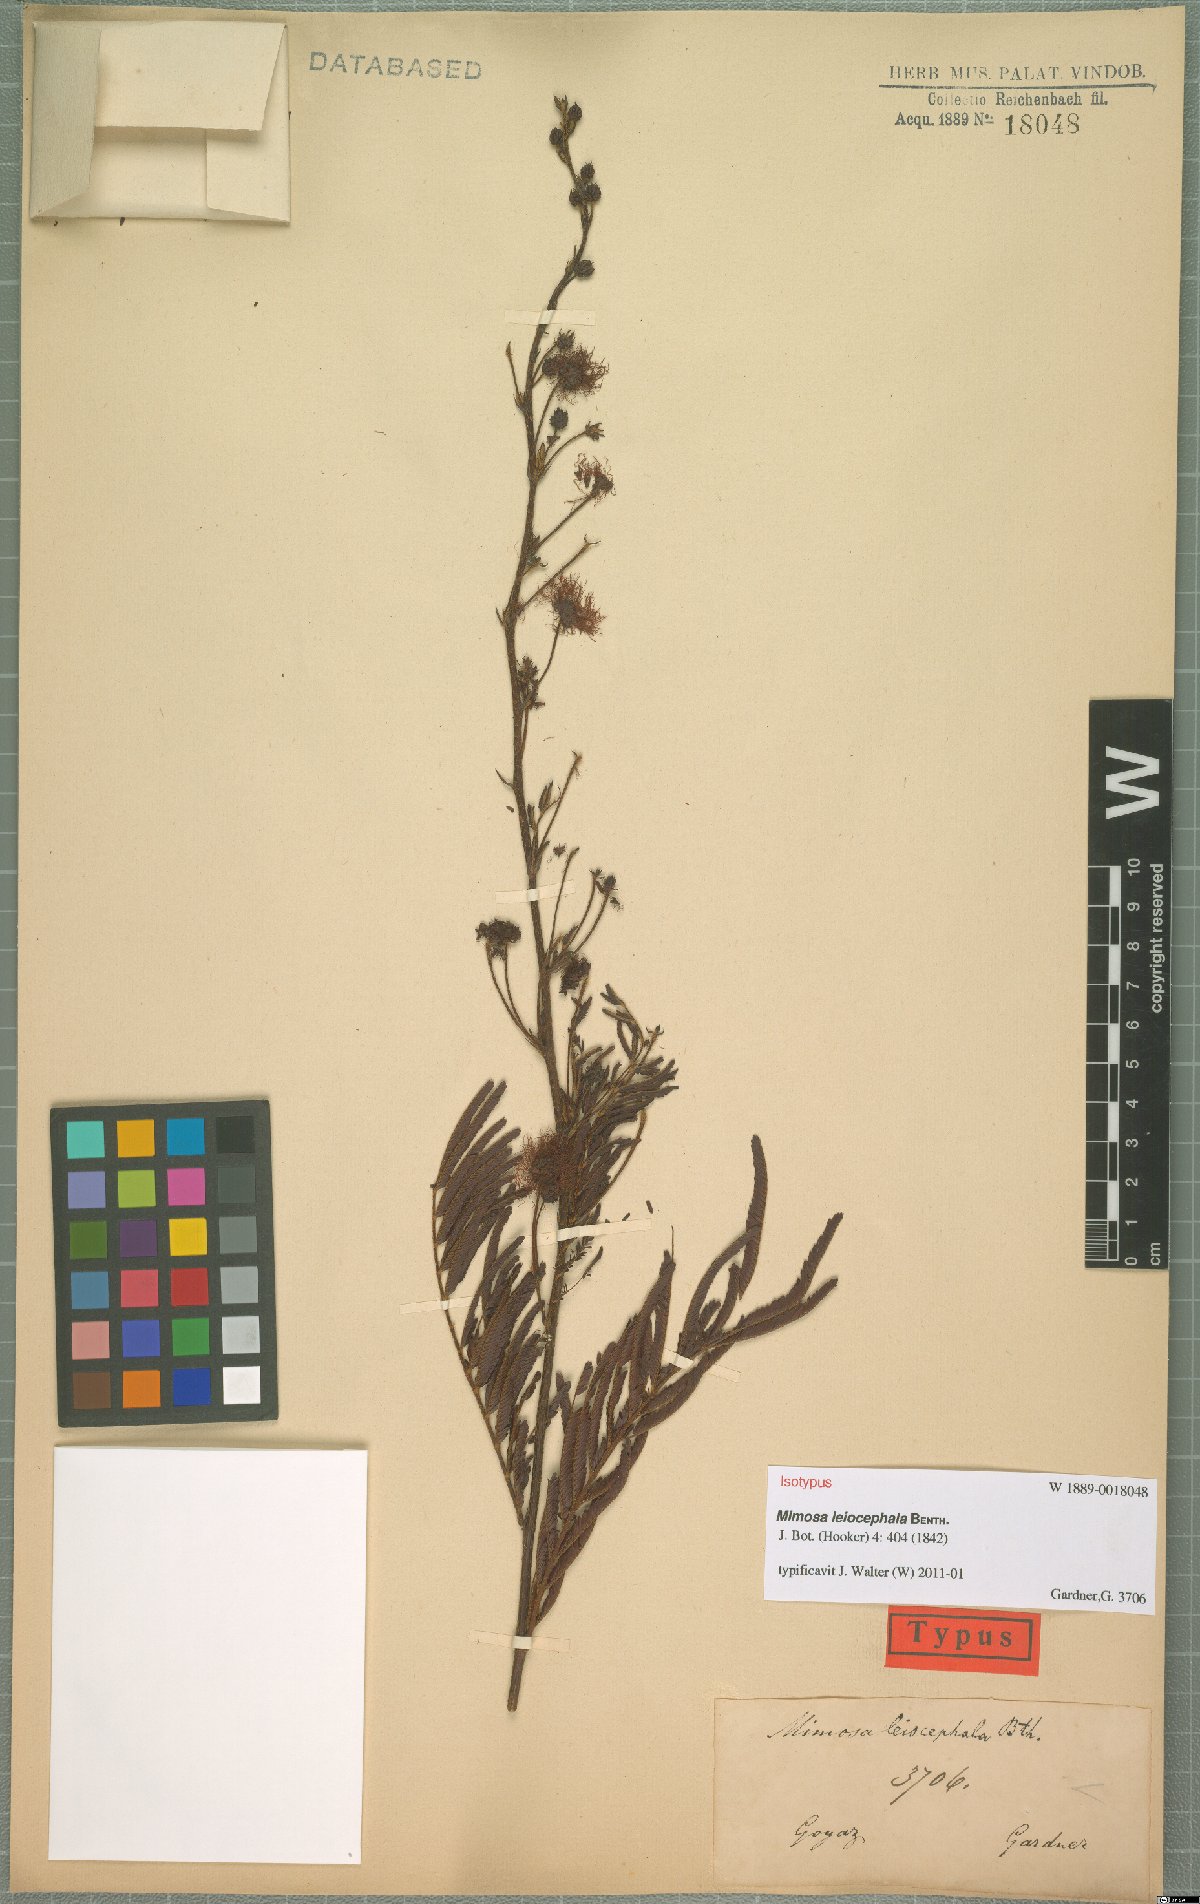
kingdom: Plantae
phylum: Tracheophyta
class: Magnoliopsida
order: Fabales
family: Fabaceae
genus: Mimosa
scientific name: Mimosa leiocephala
